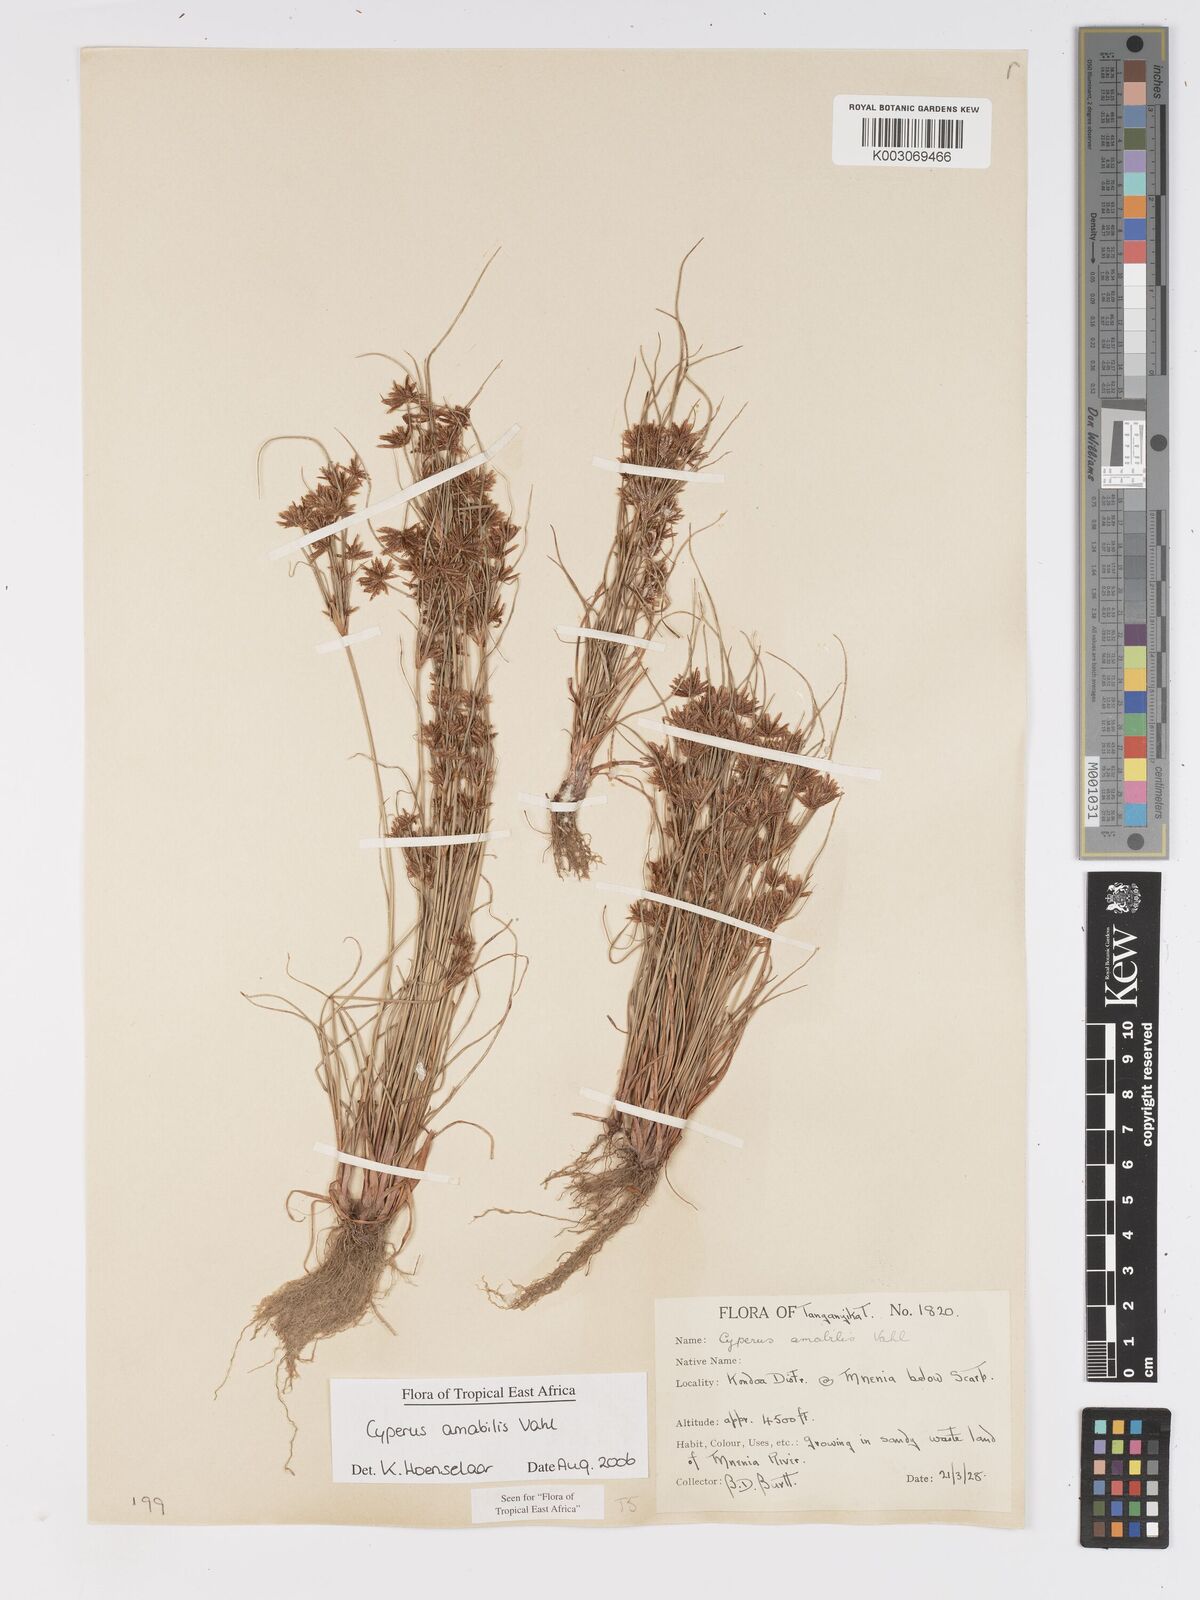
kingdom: Plantae
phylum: Tracheophyta
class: Liliopsida
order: Poales
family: Cyperaceae
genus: Cyperus
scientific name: Cyperus amabilis
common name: Foothill flat sedge
